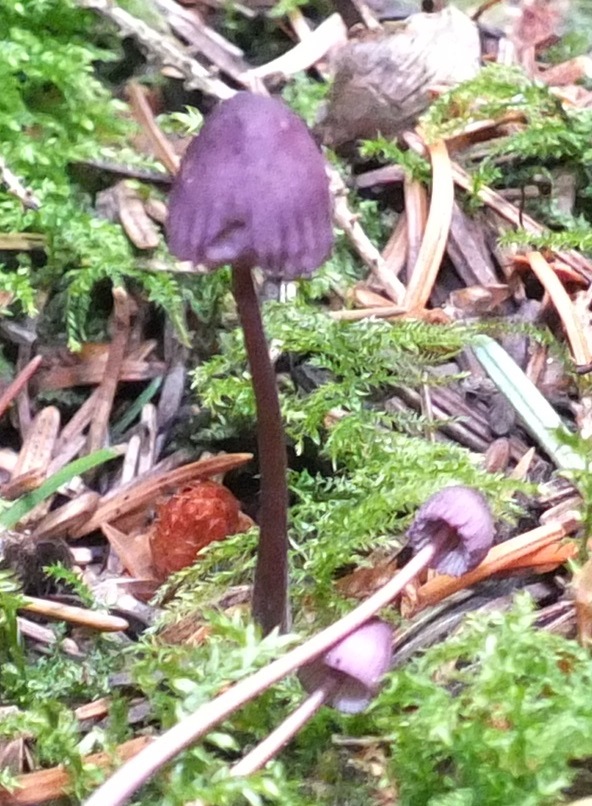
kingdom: Fungi
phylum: Basidiomycota
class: Agaricomycetes
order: Agaricales
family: Mycenaceae
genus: Mycena
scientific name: Mycena purpureofusca
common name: purpur-huesvamp
